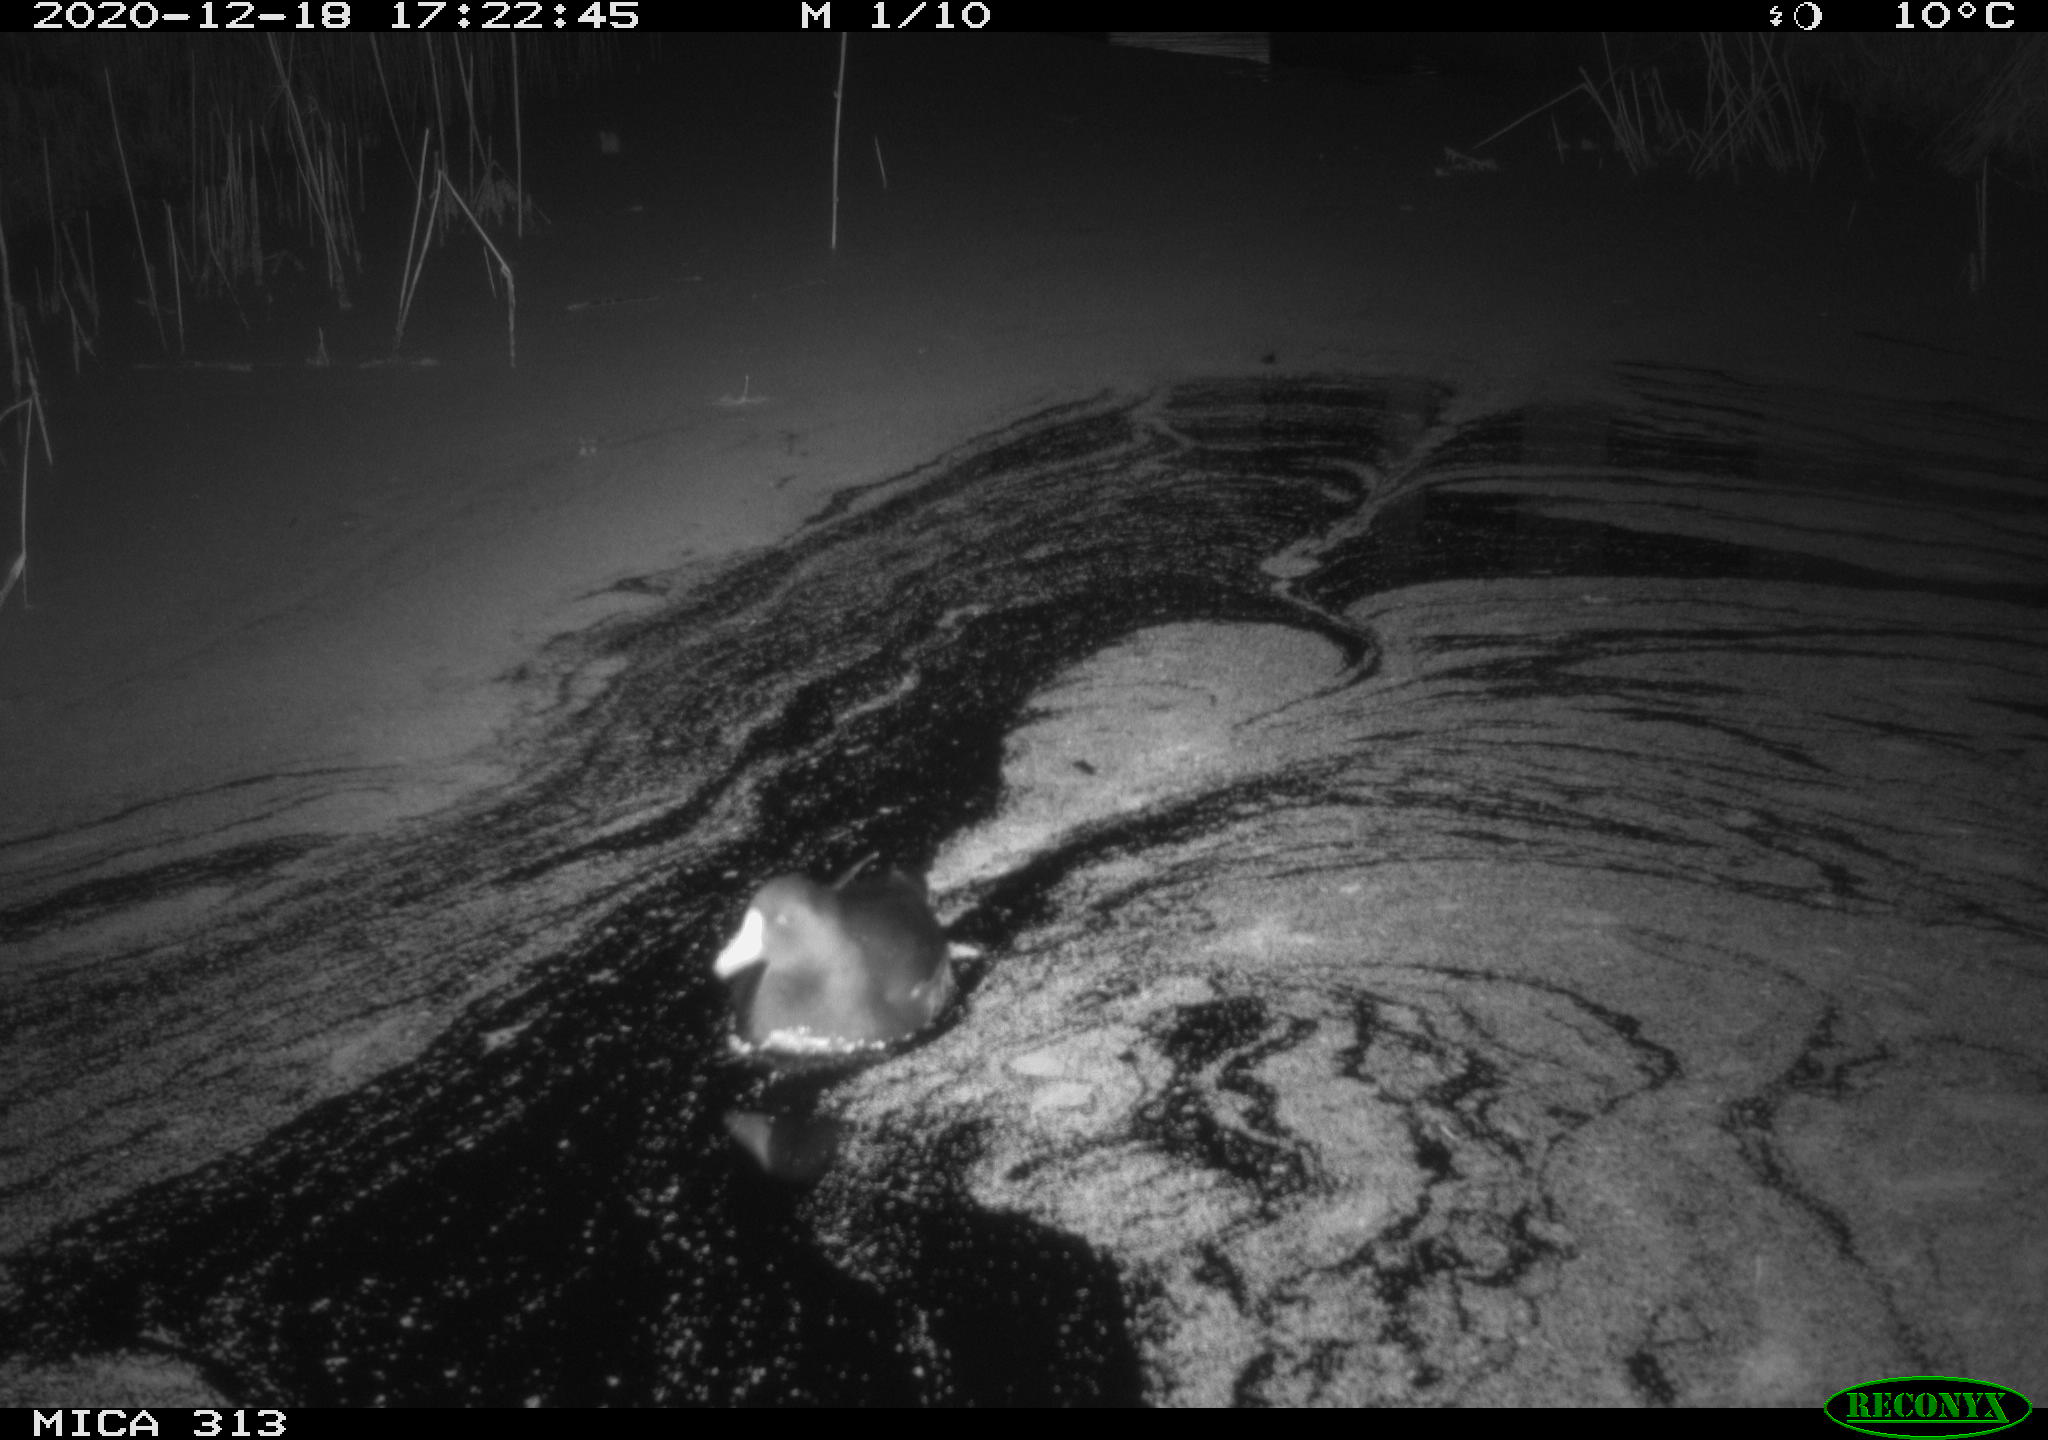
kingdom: Animalia
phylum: Chordata
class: Aves
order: Gruiformes
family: Rallidae
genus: Gallinula
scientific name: Gallinula chloropus
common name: Common moorhen
